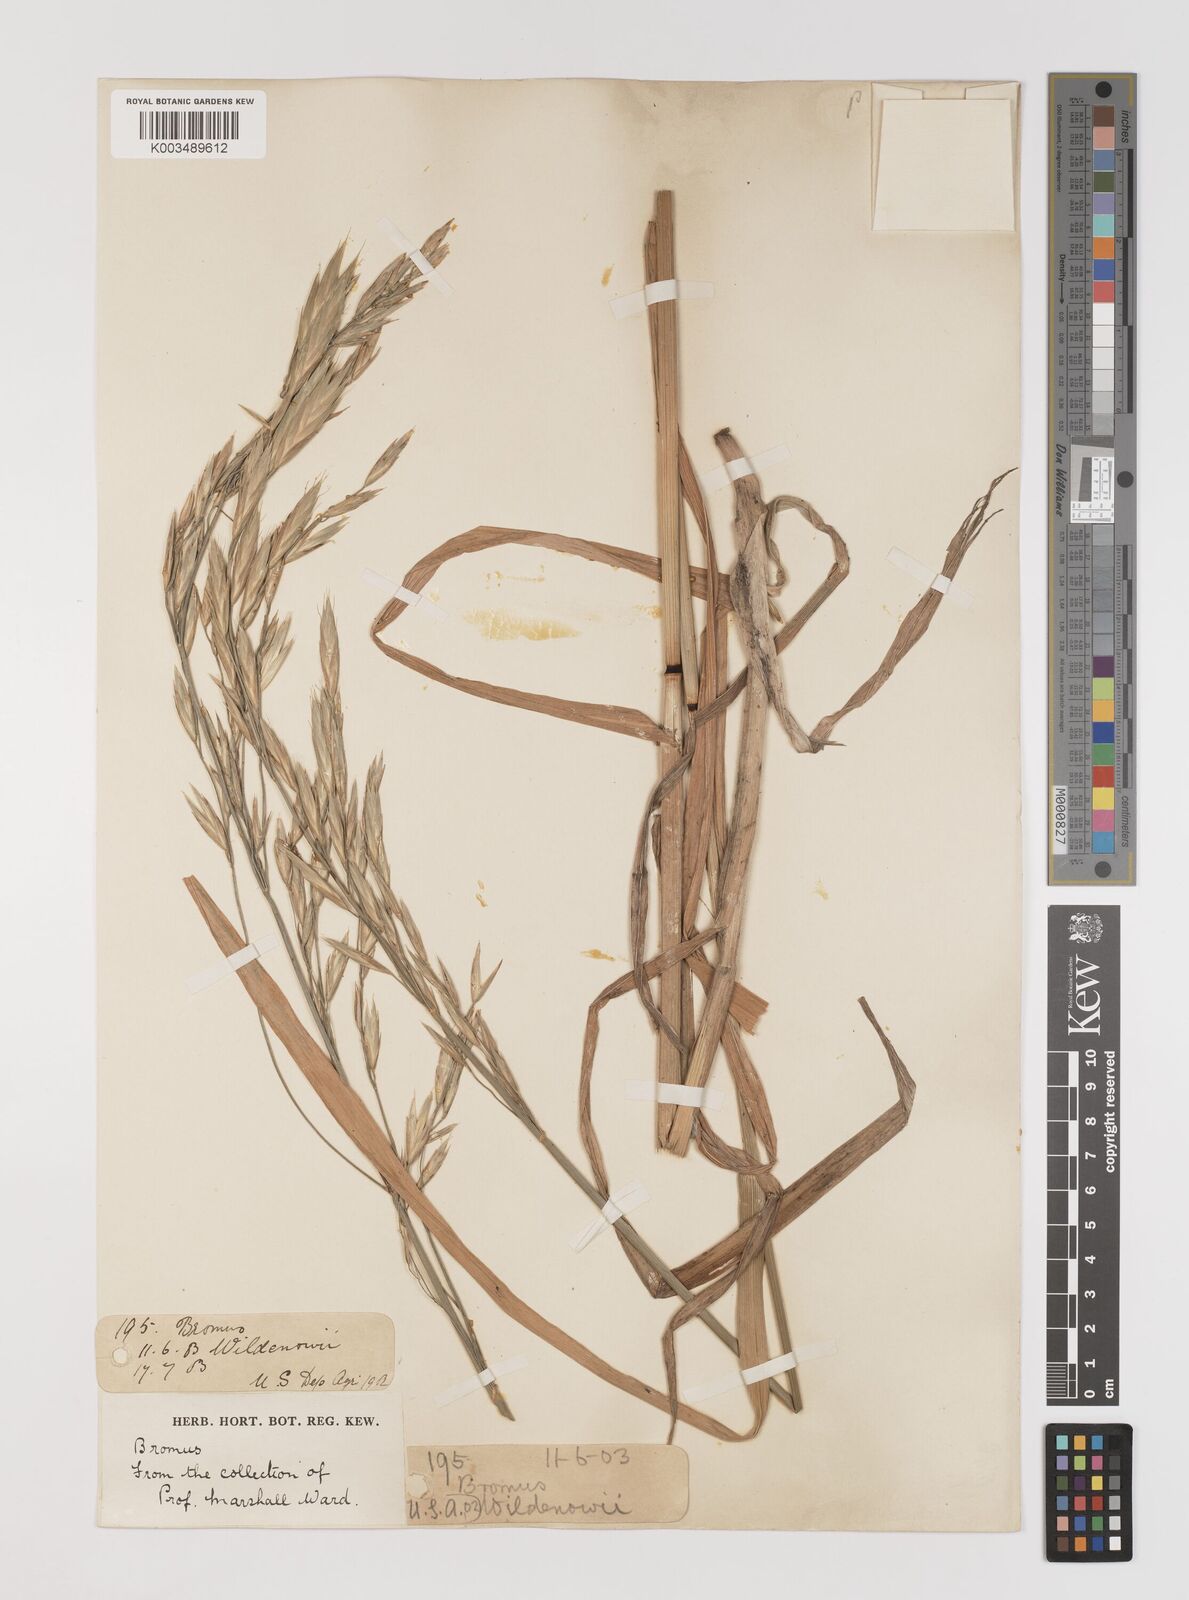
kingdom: Plantae
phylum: Tracheophyta
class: Liliopsida
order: Poales
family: Poaceae
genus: Bromus
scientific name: Bromus catharticus
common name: Rescuegrass
